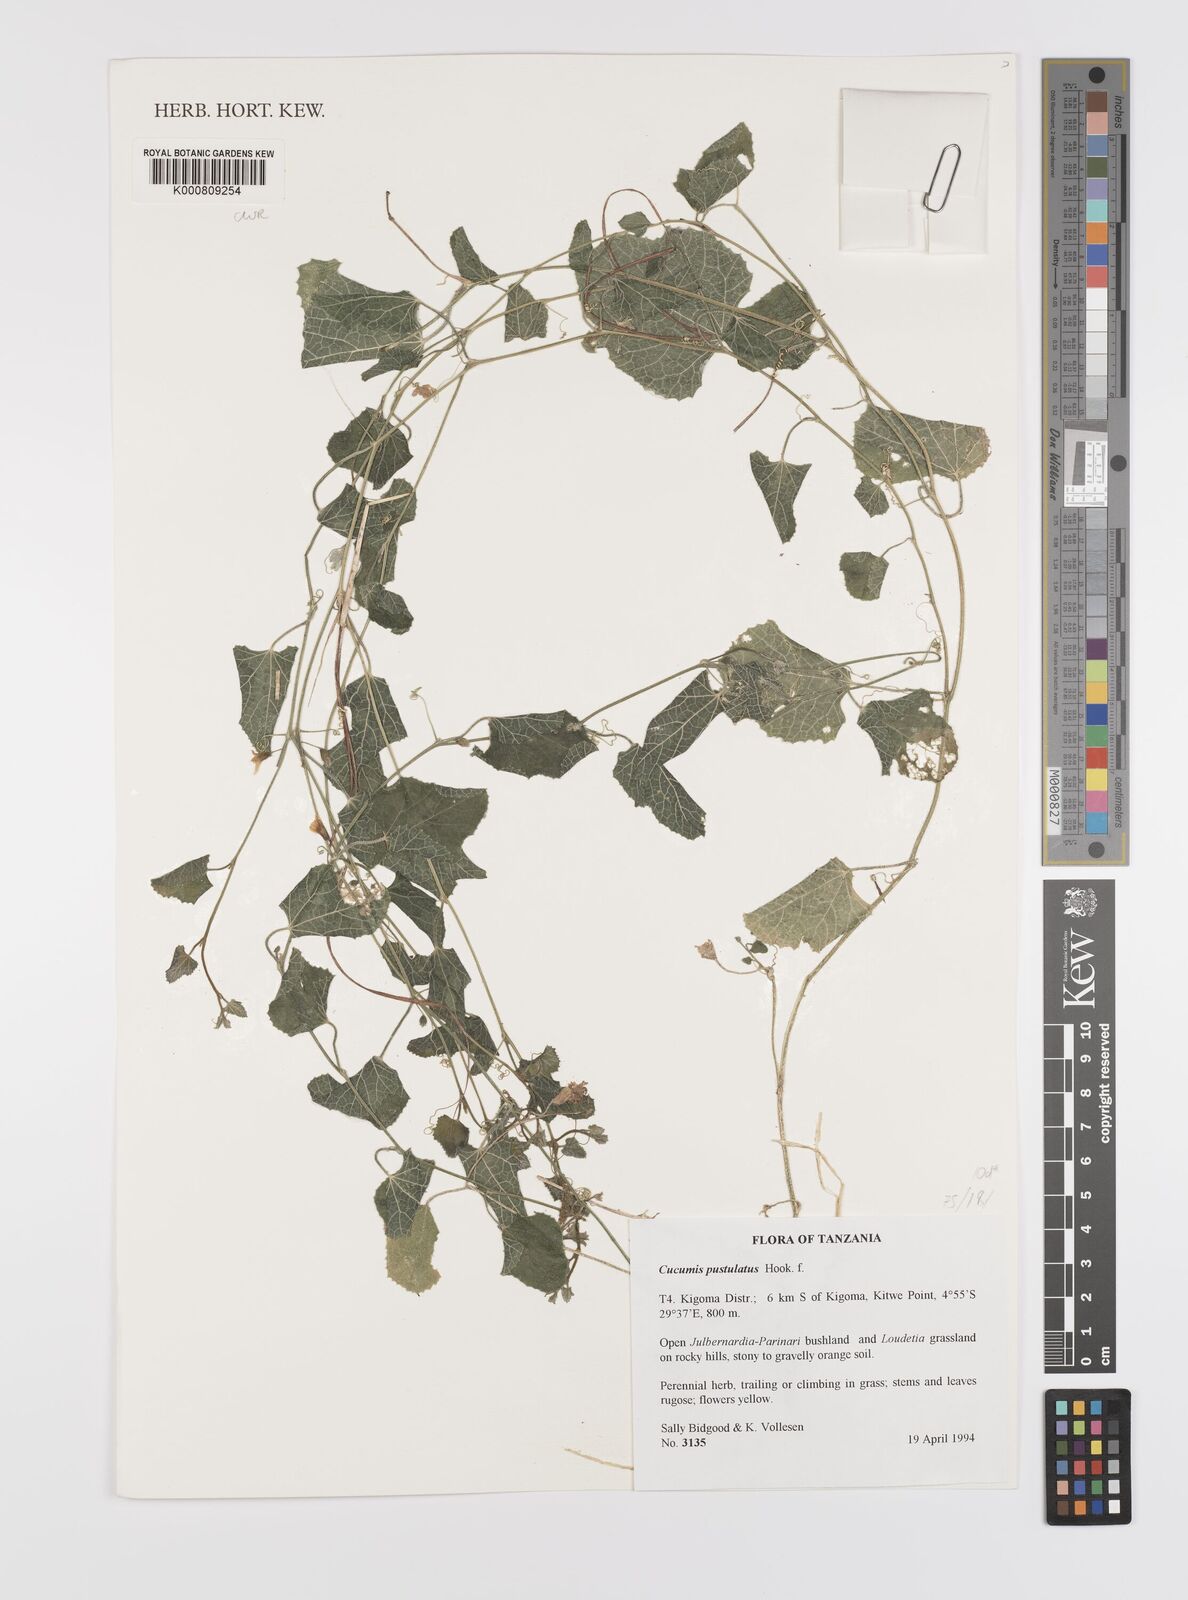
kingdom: Plantae
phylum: Tracheophyta
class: Magnoliopsida
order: Cucurbitales
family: Cucurbitaceae
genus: Cucumis
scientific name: Cucumis pustulatus
